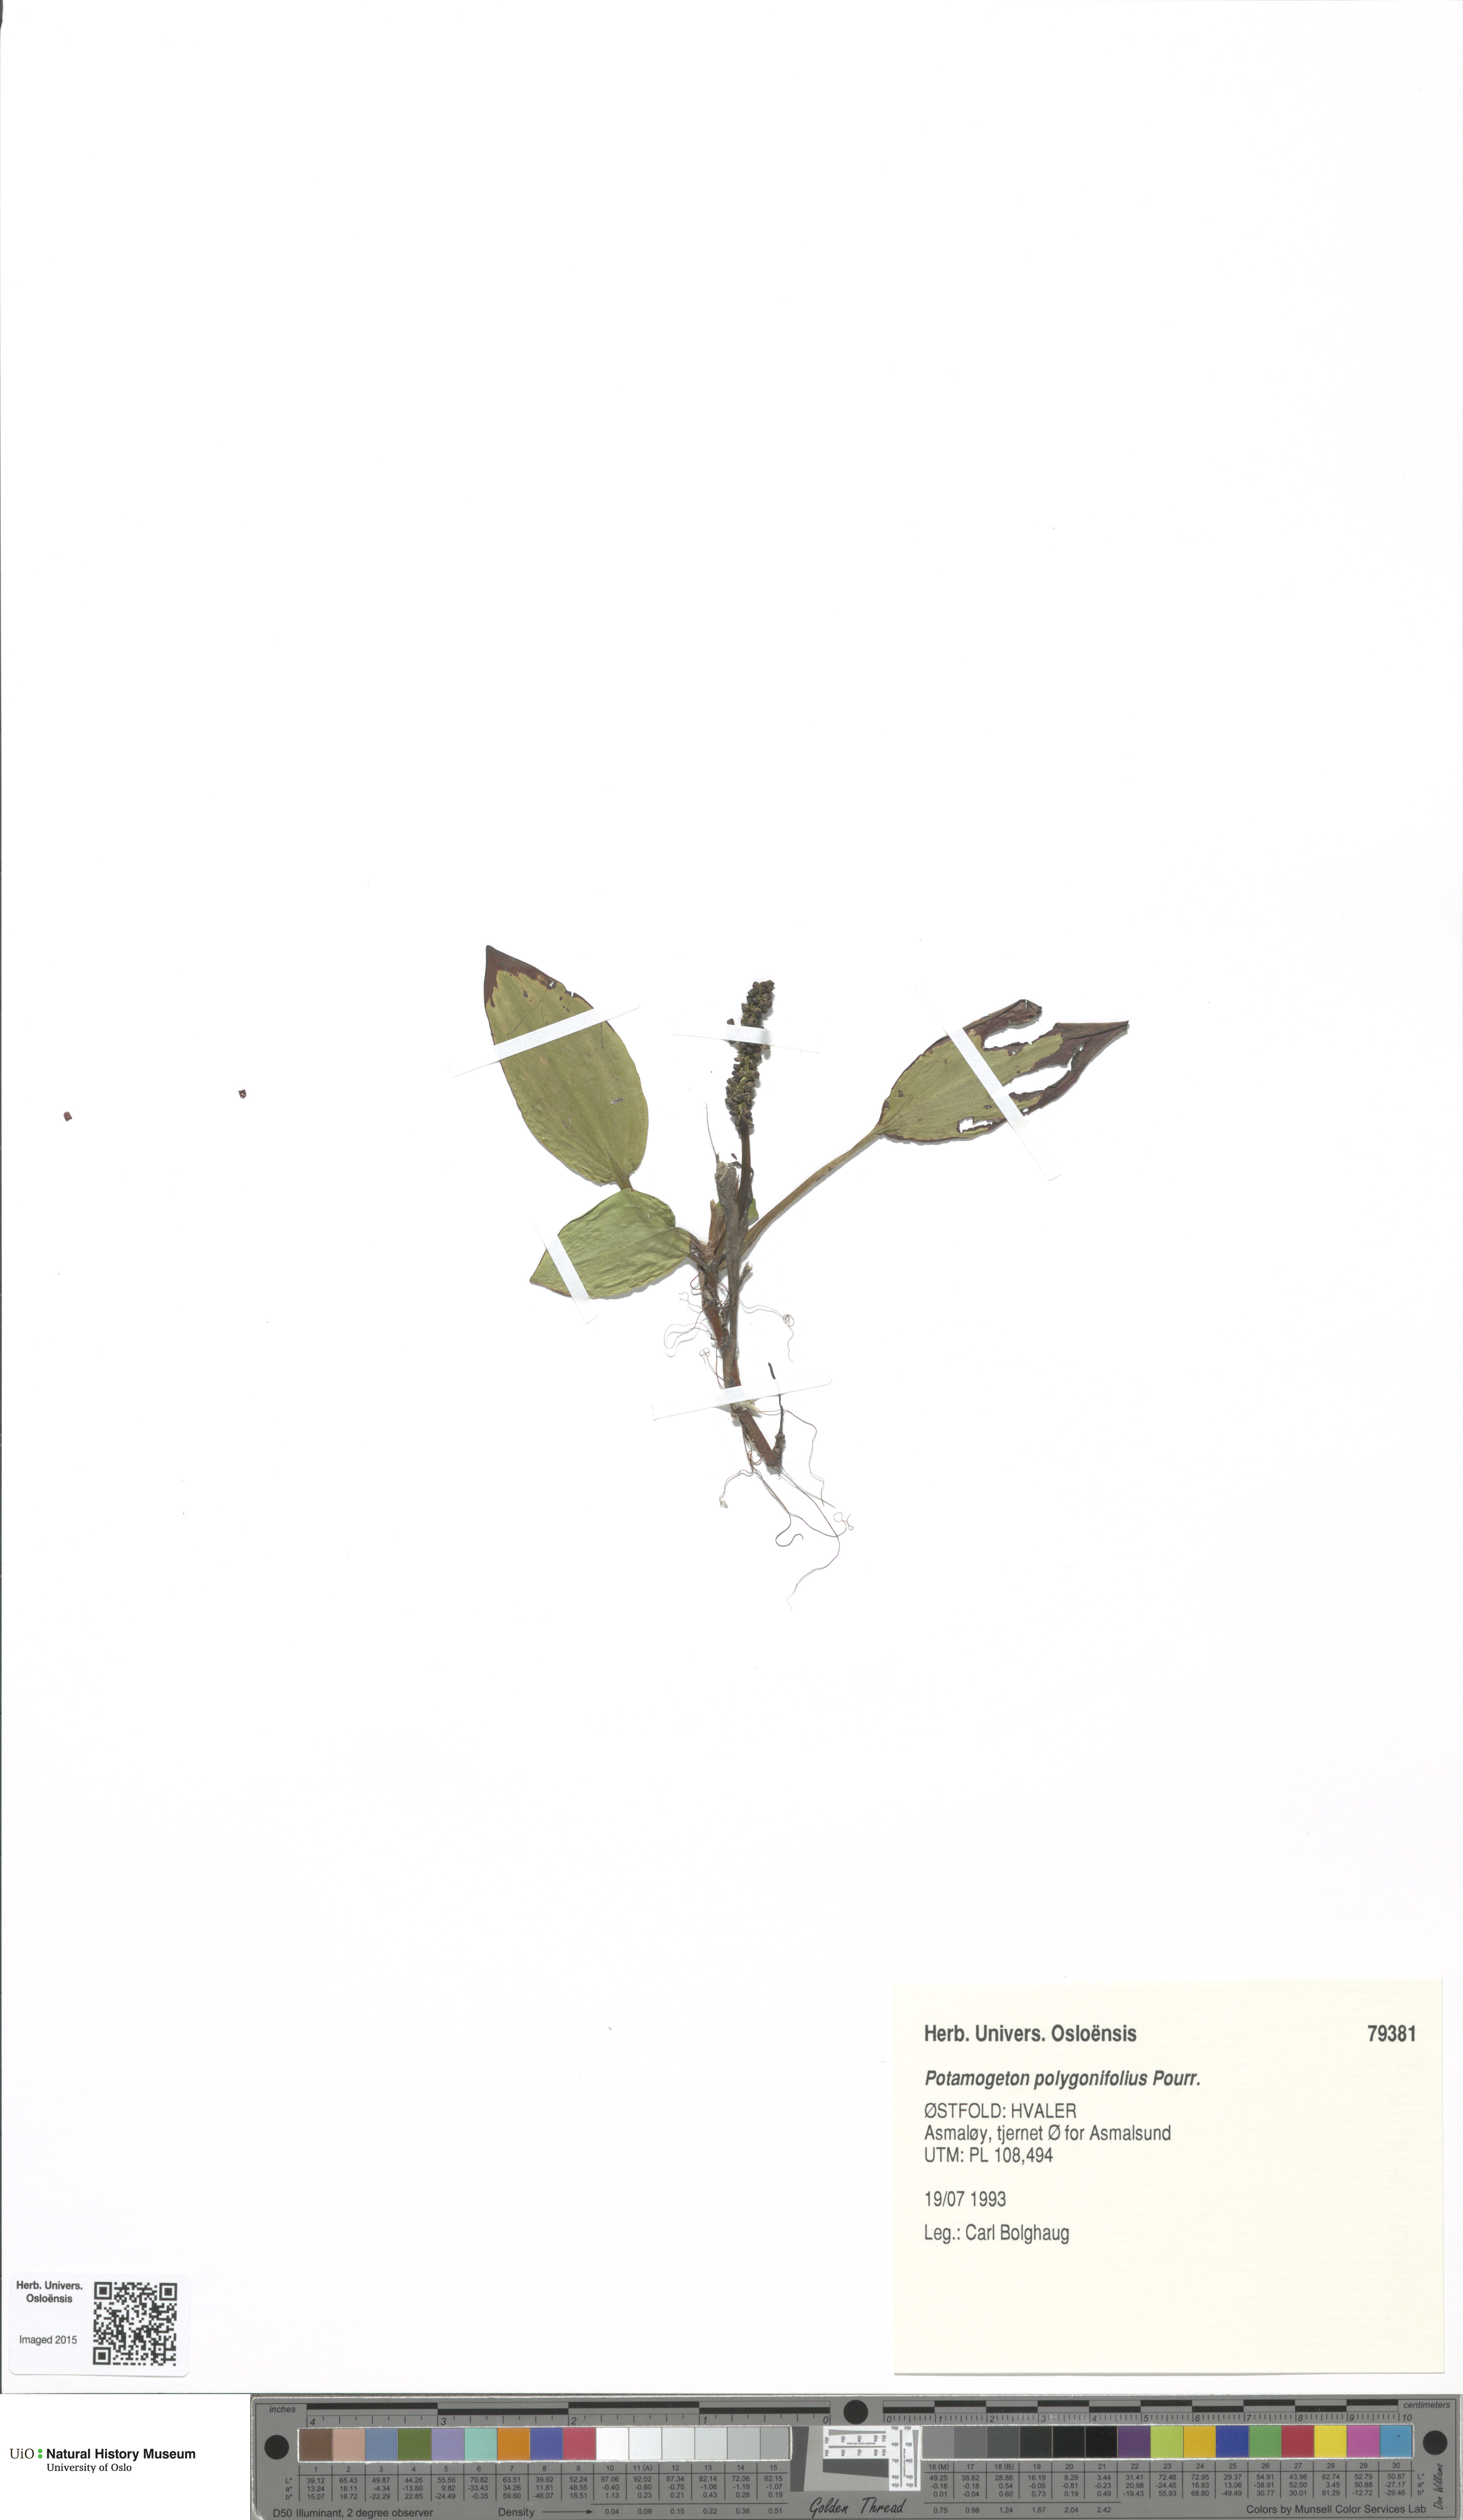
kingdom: Plantae
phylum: Tracheophyta
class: Liliopsida
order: Alismatales
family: Potamogetonaceae
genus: Potamogeton
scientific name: Potamogeton polygonifolius
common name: Bog pondweed
